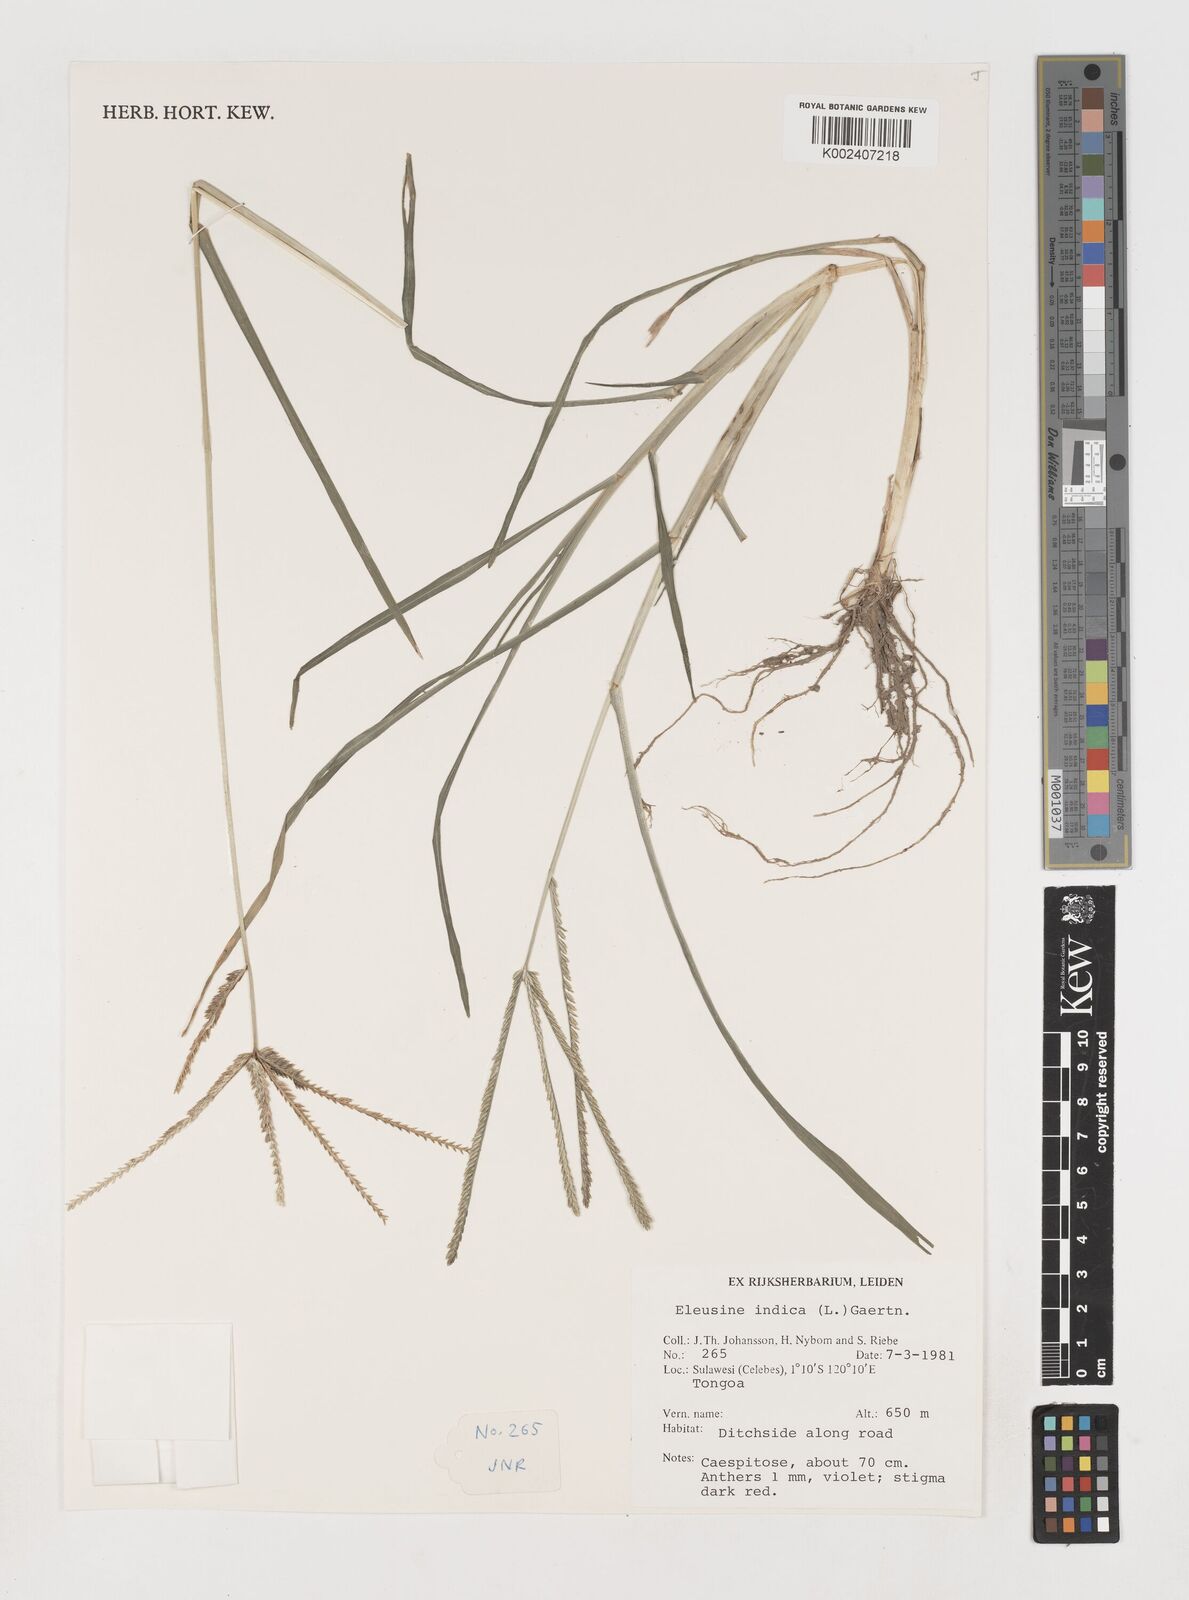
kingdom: Plantae
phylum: Tracheophyta
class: Liliopsida
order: Poales
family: Poaceae
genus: Eleusine
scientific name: Eleusine indica
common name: Yard-grass
